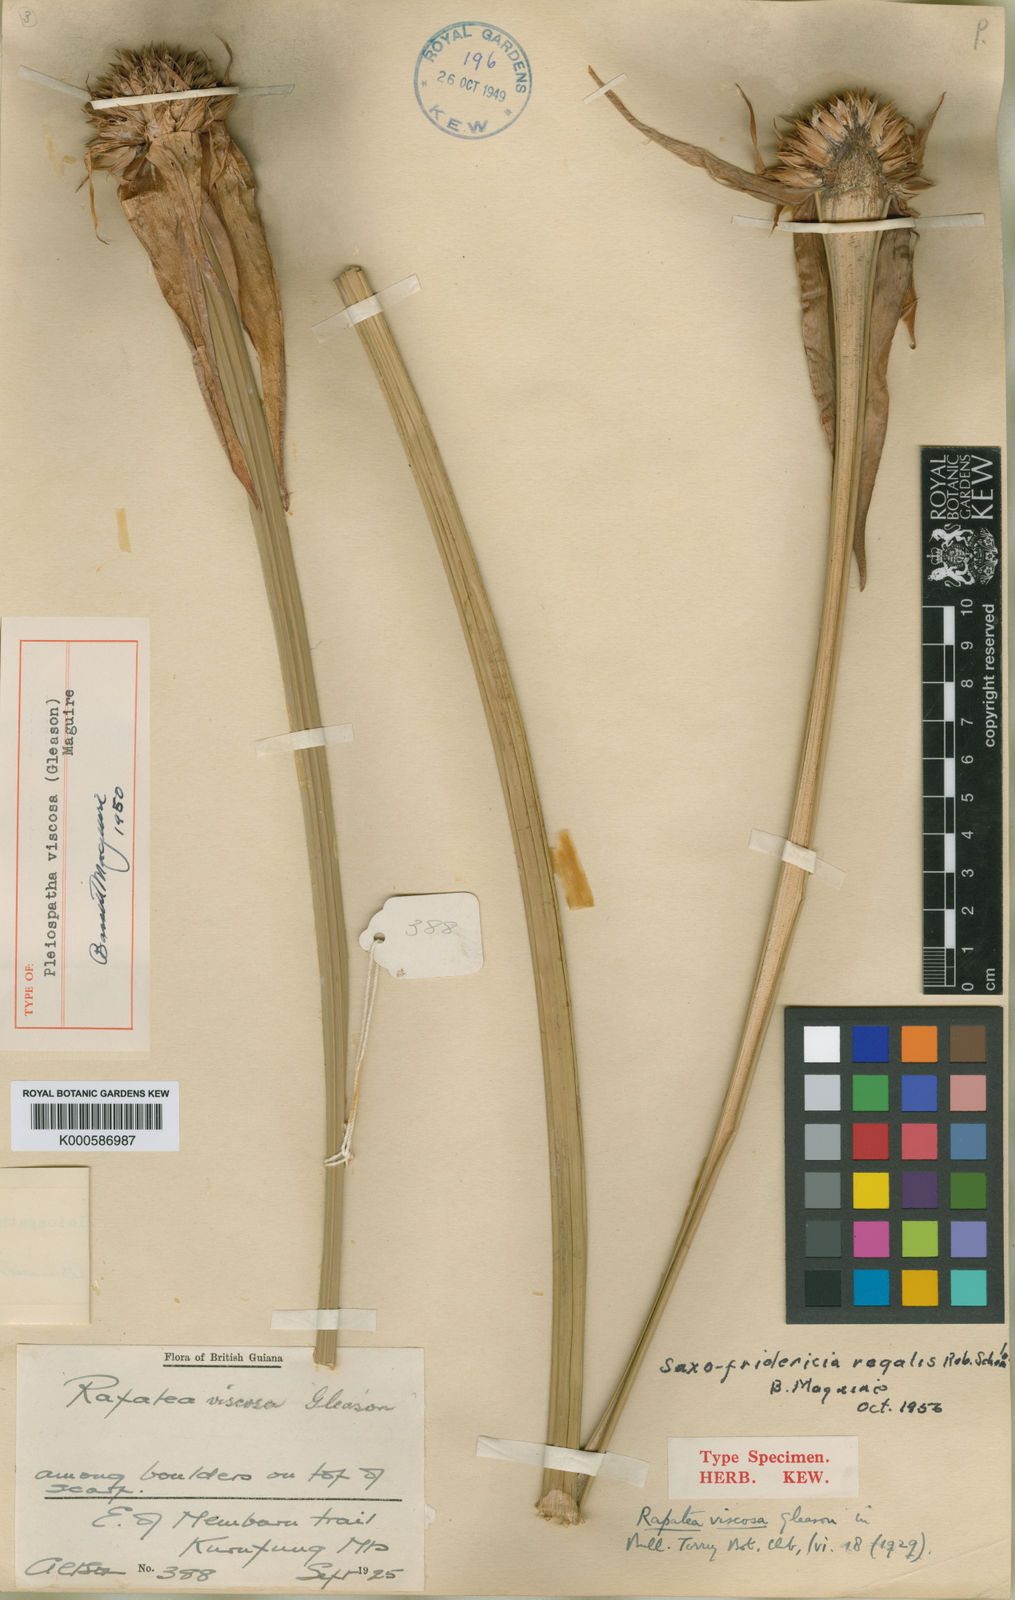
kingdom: Plantae
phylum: Tracheophyta
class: Liliopsida
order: Poales
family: Rapateaceae
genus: Saxofridericia
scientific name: Saxofridericia regalis
